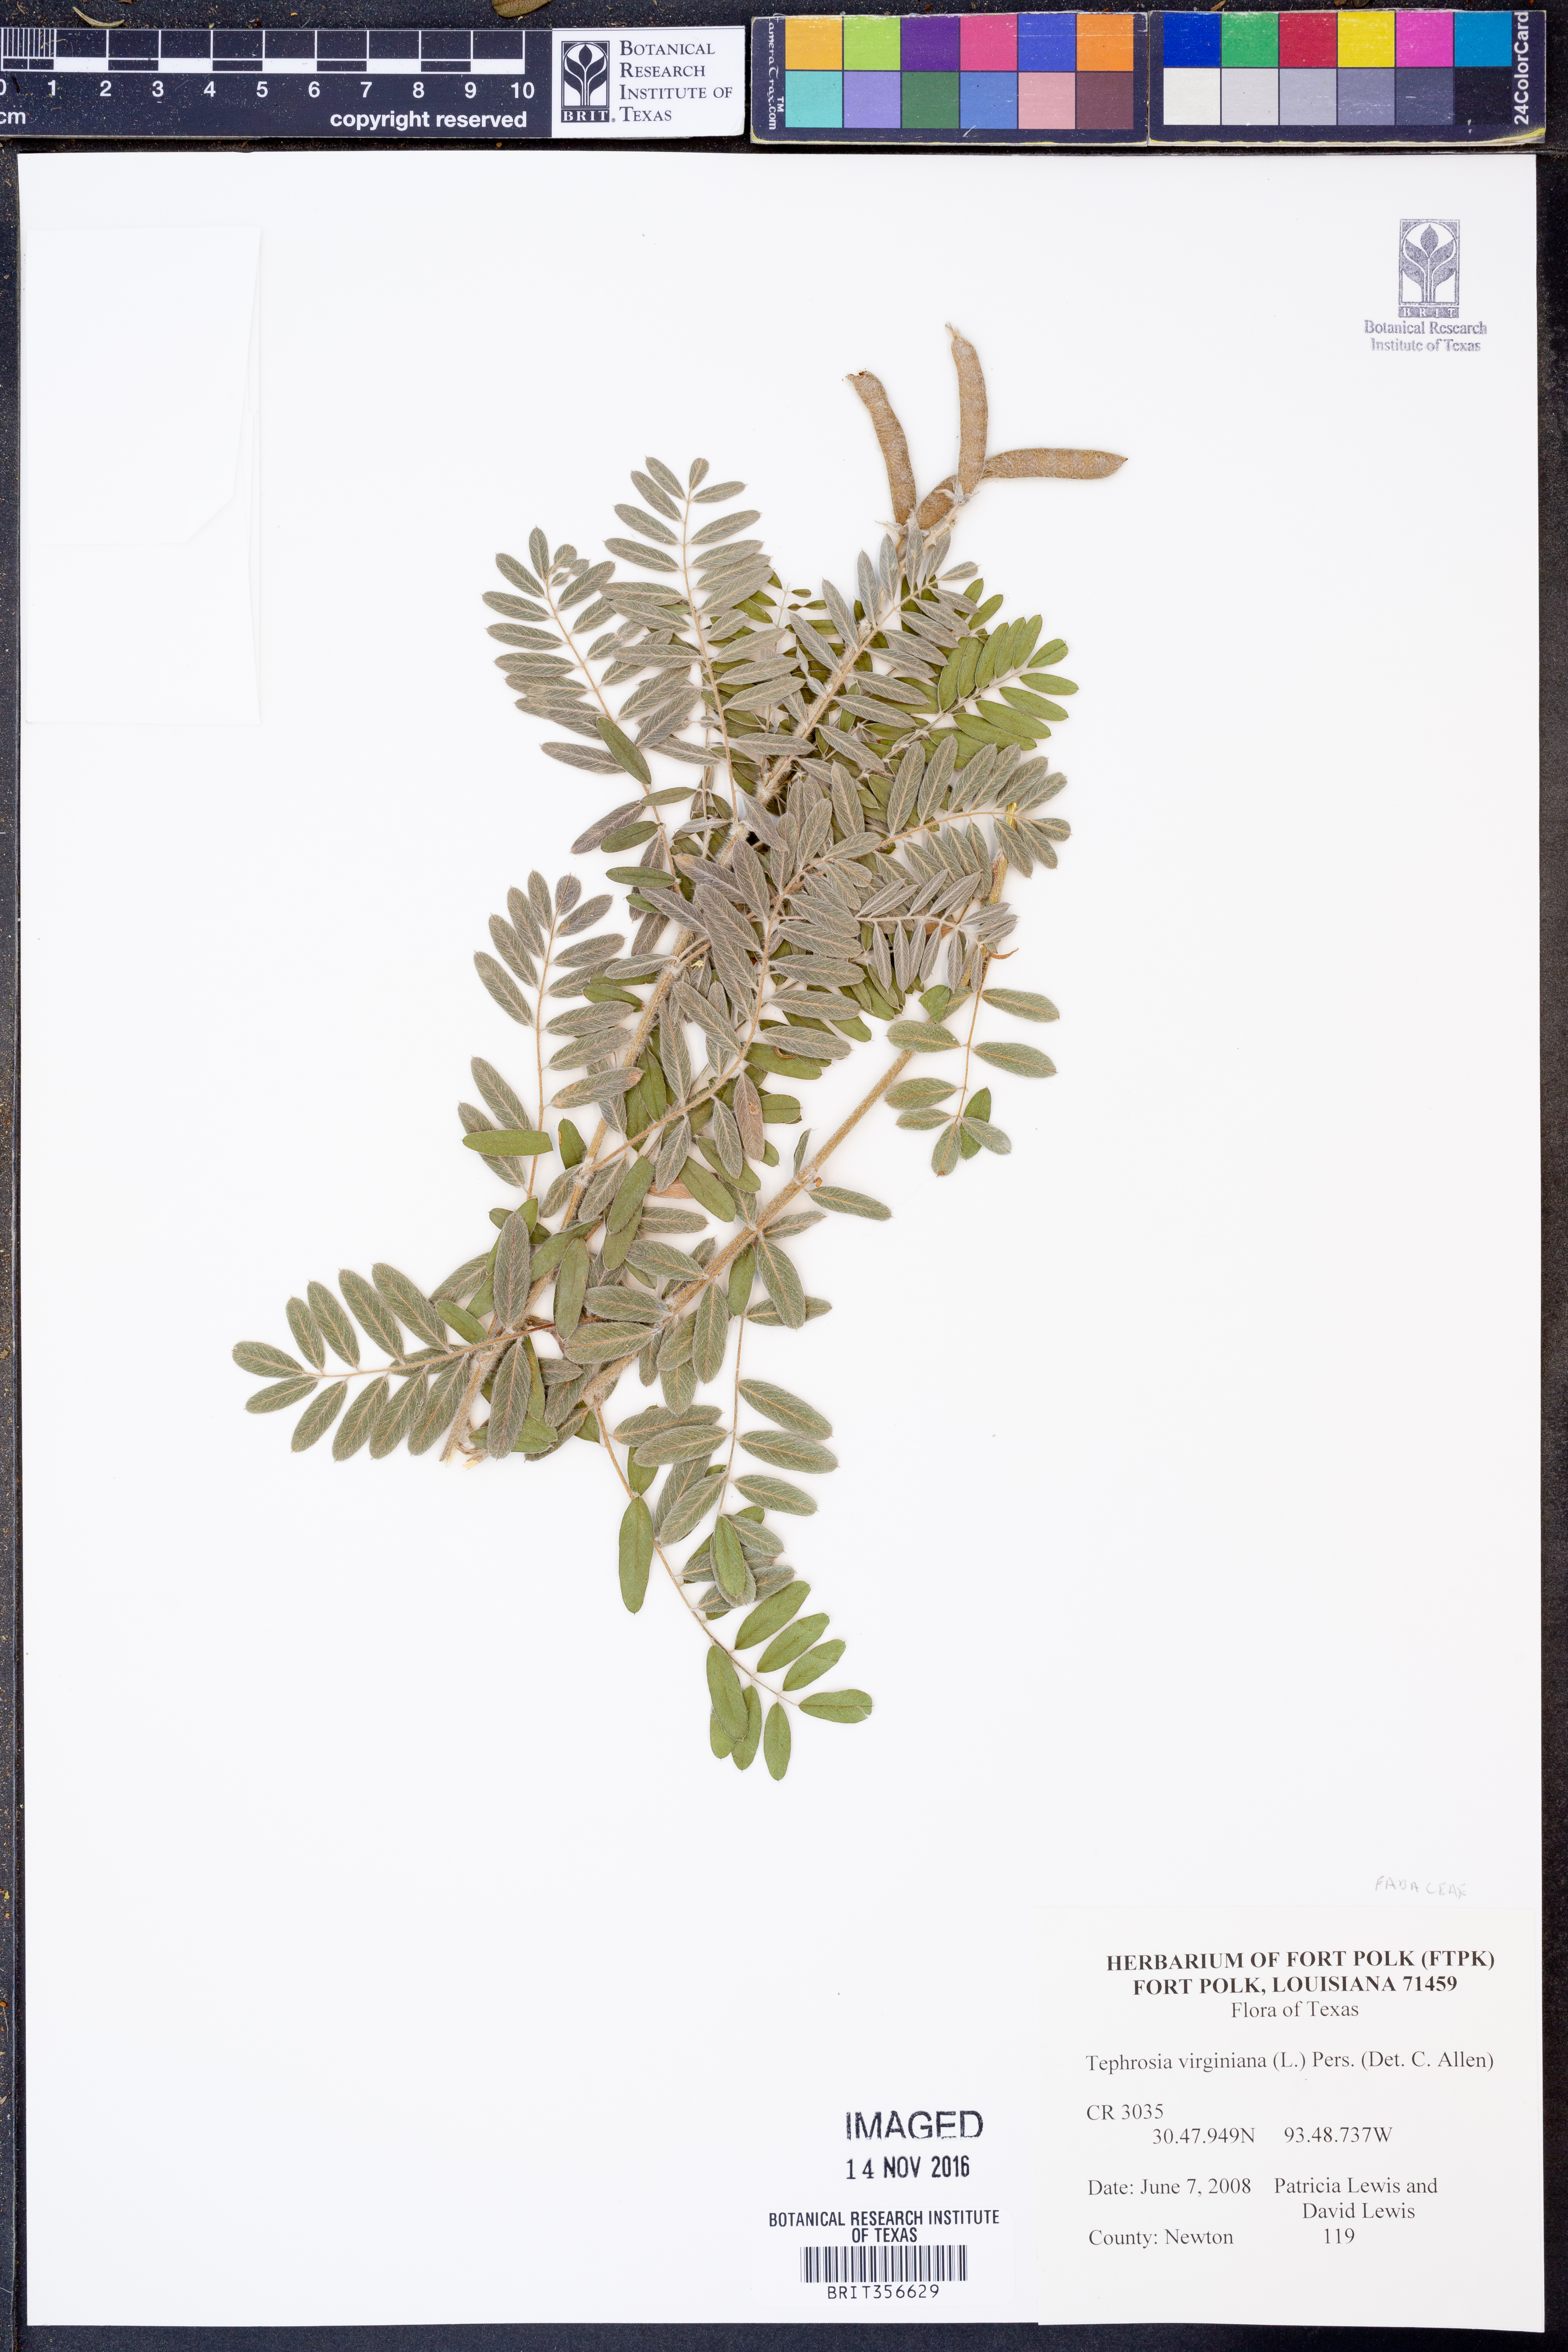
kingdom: Plantae
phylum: Tracheophyta
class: Magnoliopsida
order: Fabales
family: Fabaceae
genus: Tephrosia
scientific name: Tephrosia virginiana
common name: Rabbit-pea
